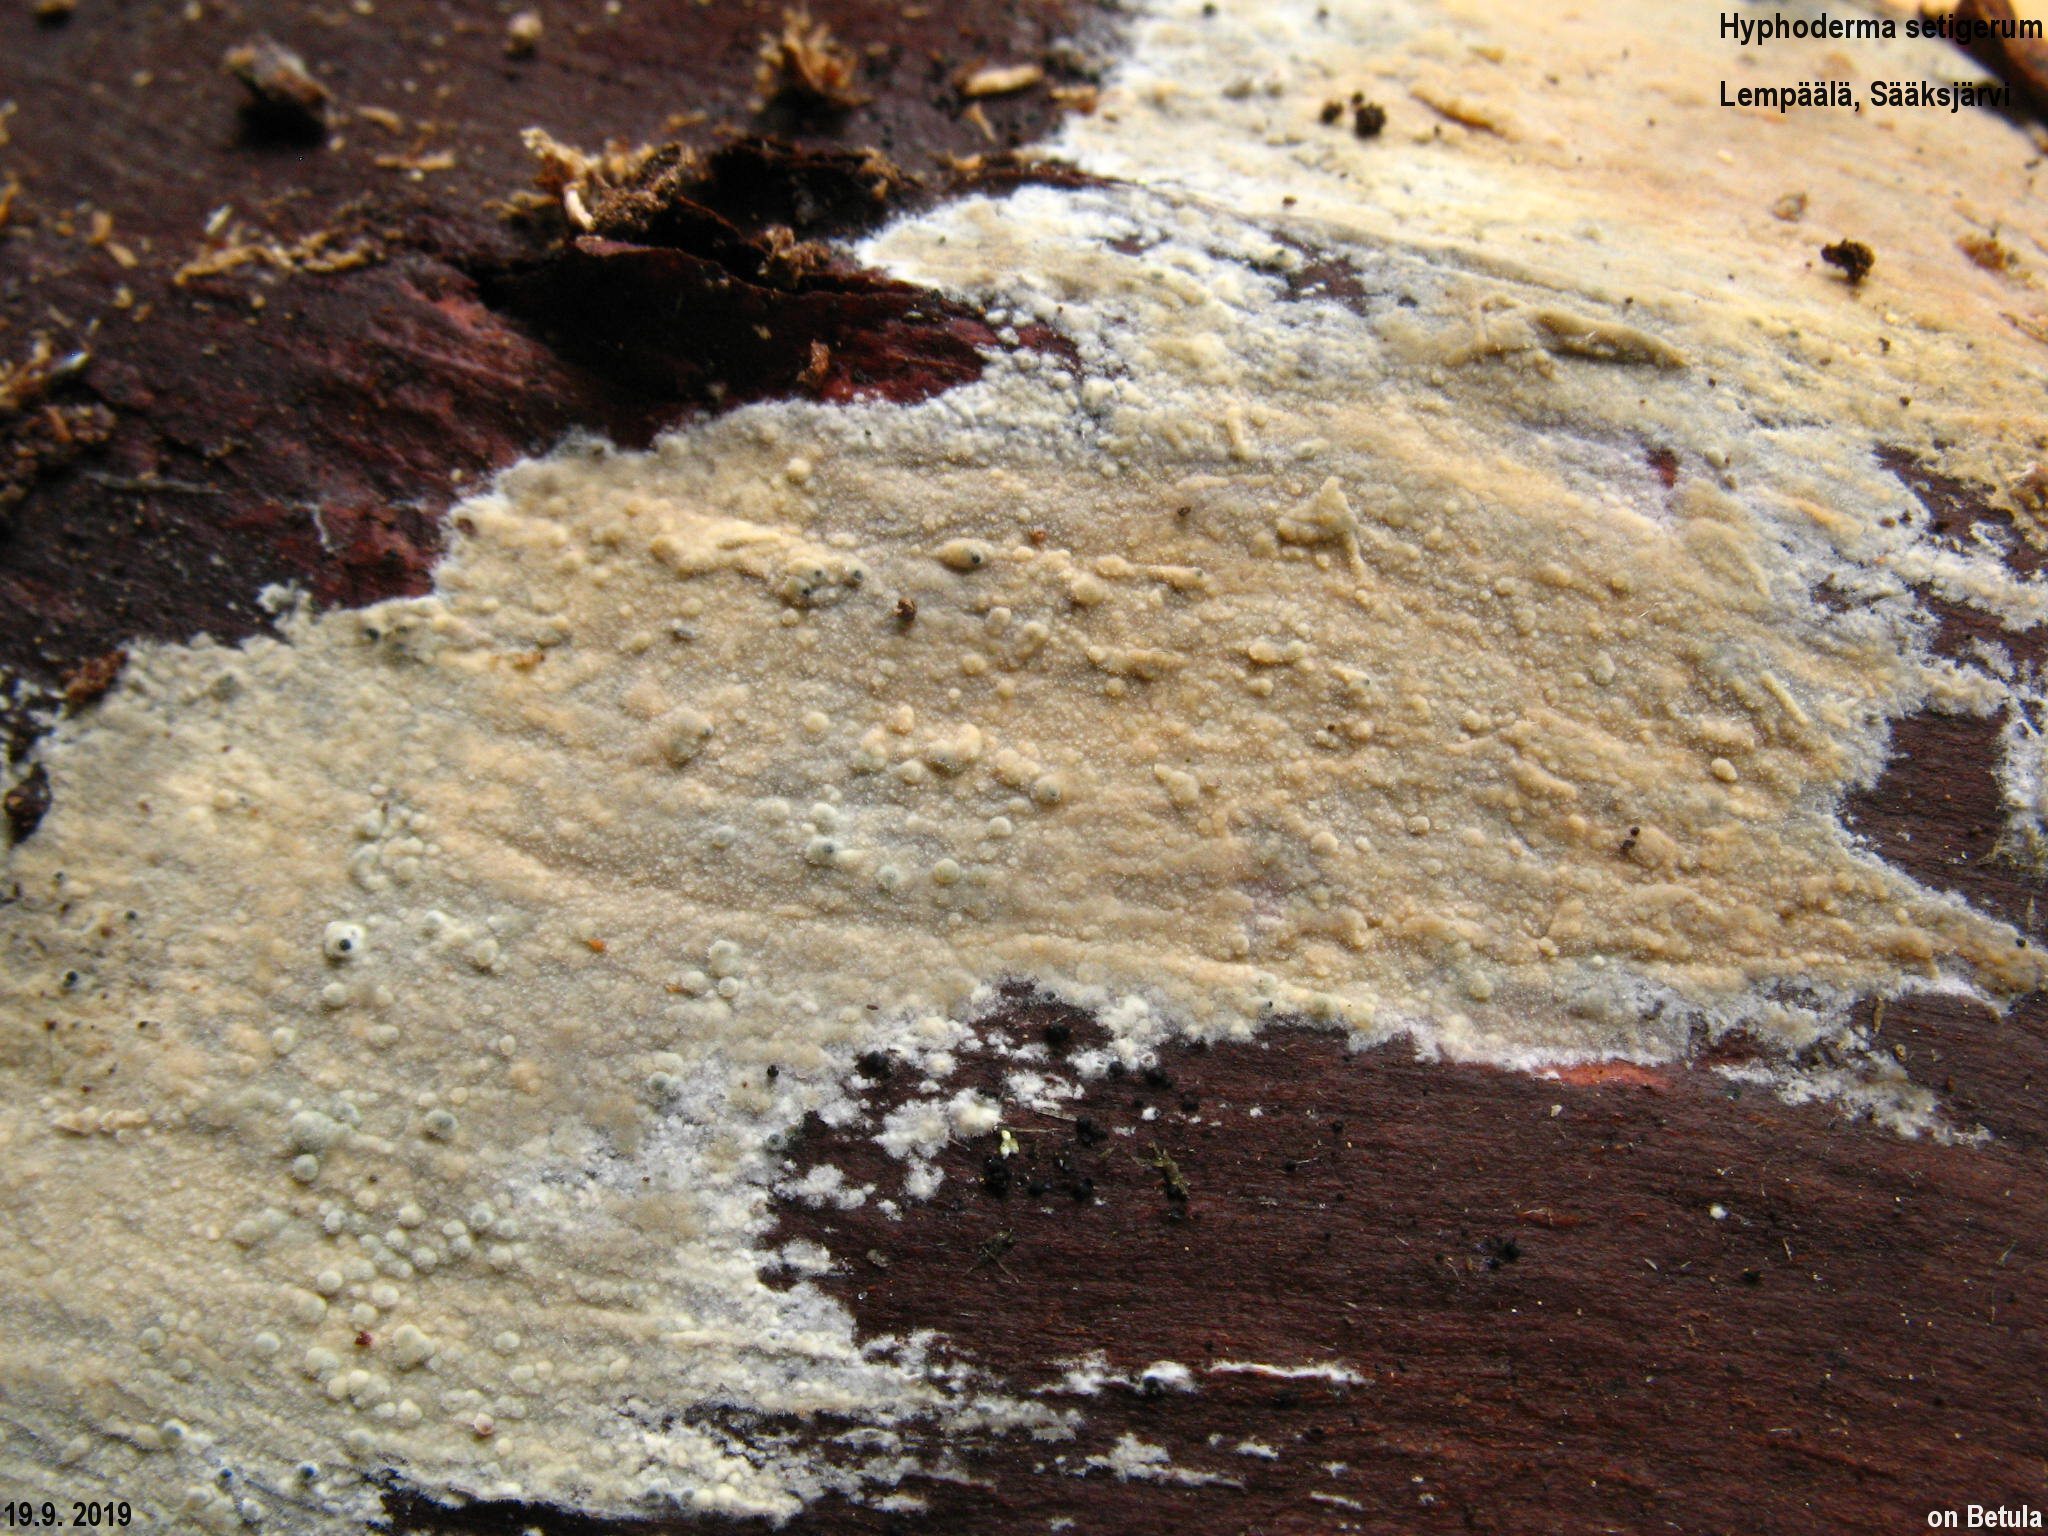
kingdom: Fungi
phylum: Basidiomycota
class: Agaricomycetes
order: Polyporales
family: Hyphodermataceae
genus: Hyphoderma
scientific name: Hyphoderma setigerum
